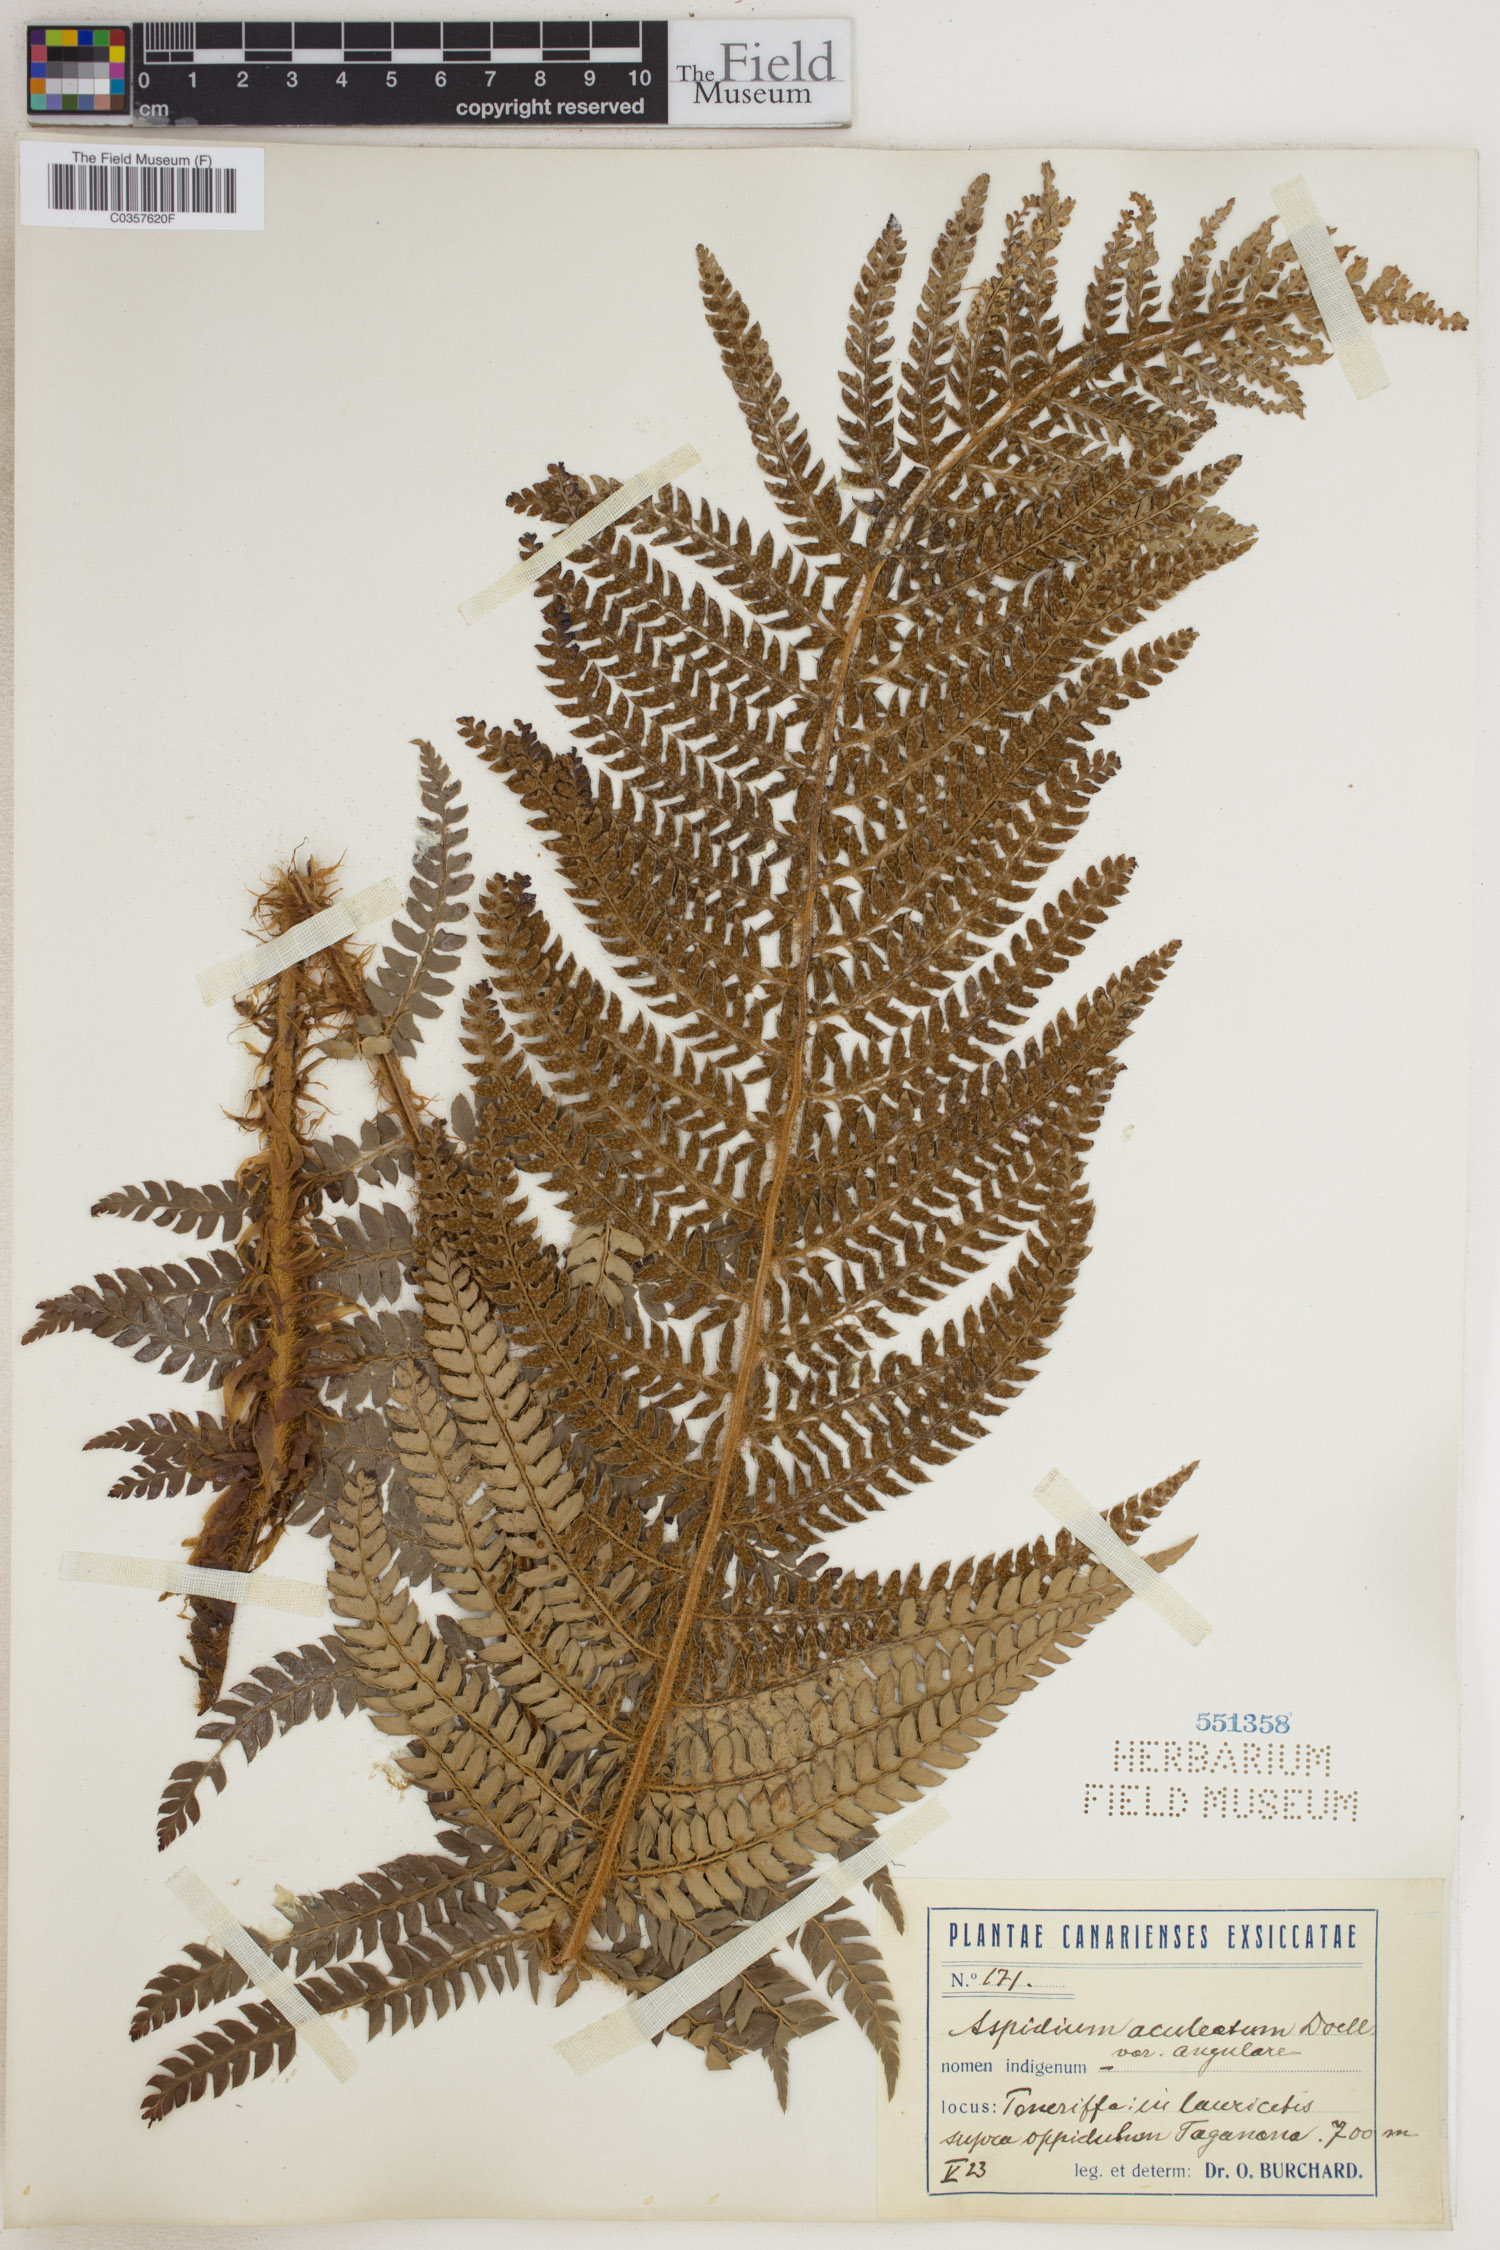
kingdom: Plantae
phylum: Tracheophyta
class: Polypodiopsida
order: Polypodiales
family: Dryopteridaceae
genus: Polystichum
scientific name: Polystichum aculeatum
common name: Hard shield-fern
